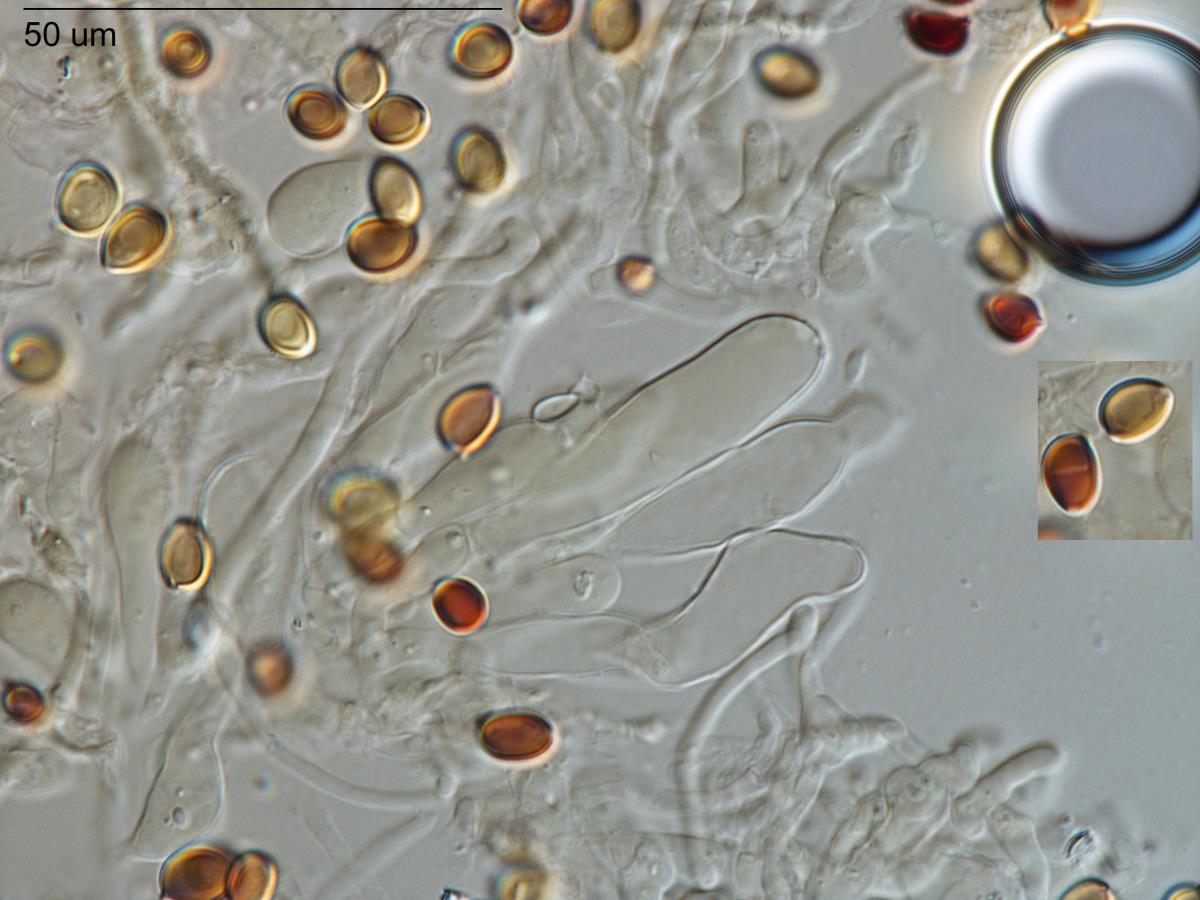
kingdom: Fungi
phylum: Basidiomycota
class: Agaricomycetes
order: Agaricales
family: Agaricaceae
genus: Leucoagaricus
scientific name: Leucoagaricus leucothites
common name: White dapperling
